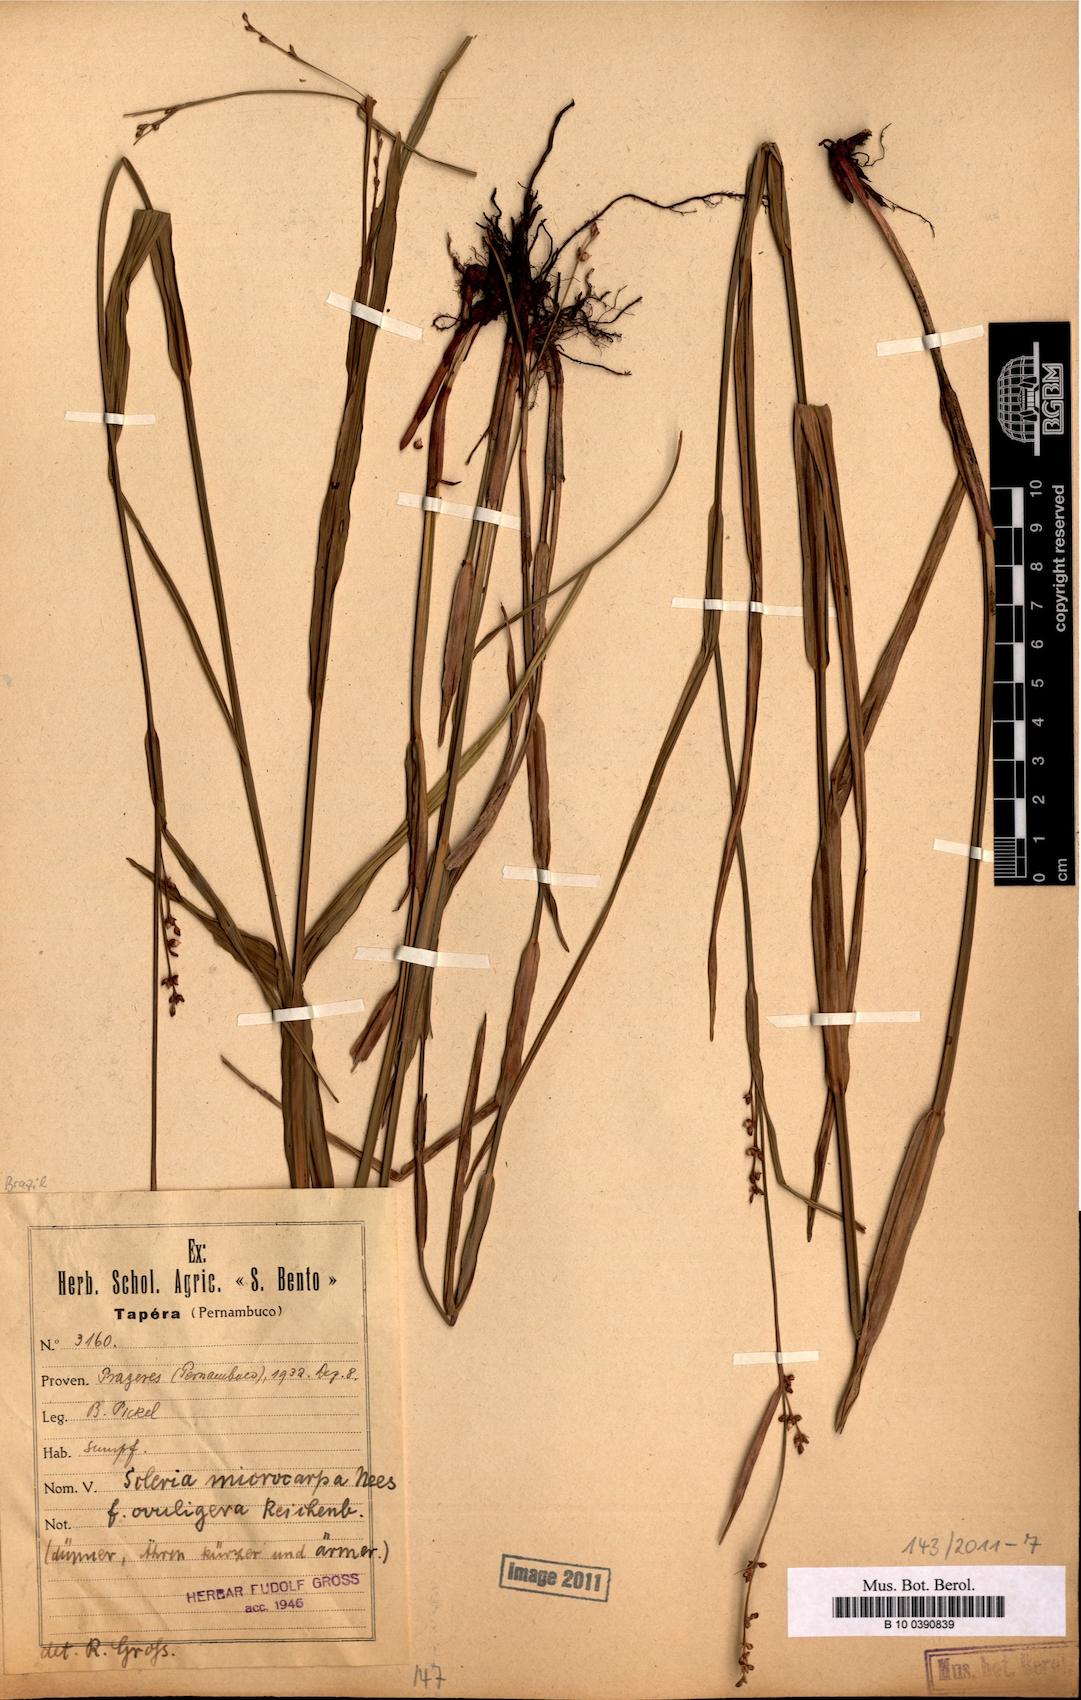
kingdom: Plantae
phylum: Tracheophyta
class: Liliopsida
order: Poales
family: Cyperaceae
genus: Scleria
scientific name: Scleria microcarpa
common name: Tropical nutrush
